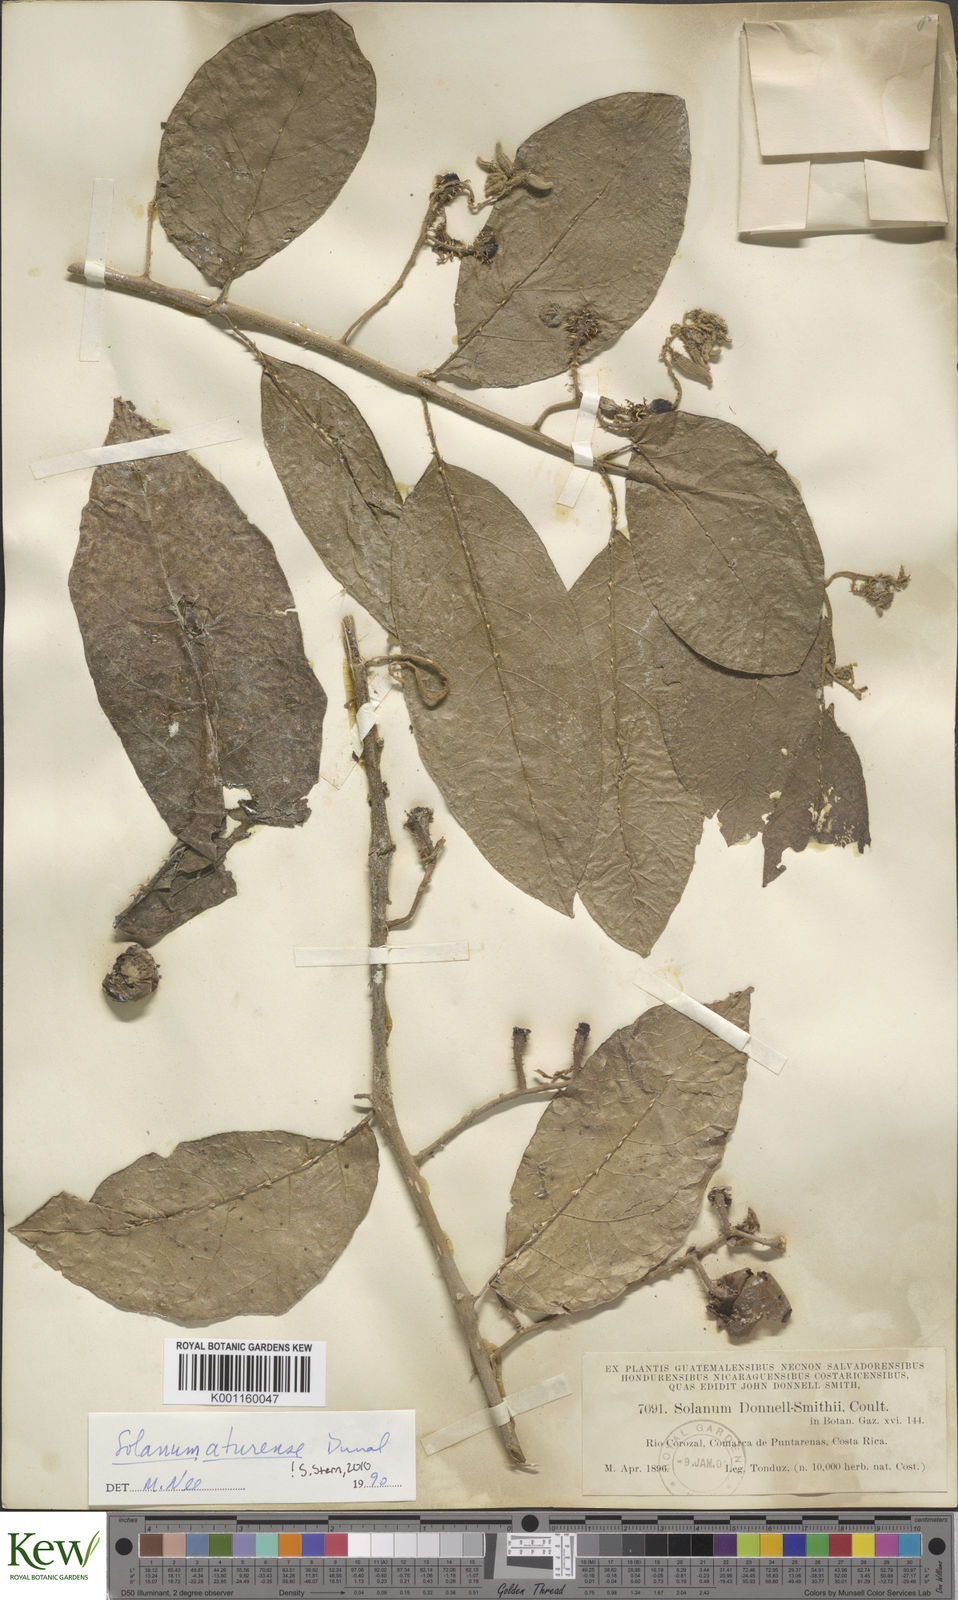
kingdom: Plantae
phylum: Tracheophyta
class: Magnoliopsida
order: Solanales
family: Solanaceae
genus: Solanum
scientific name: Solanum aturense
